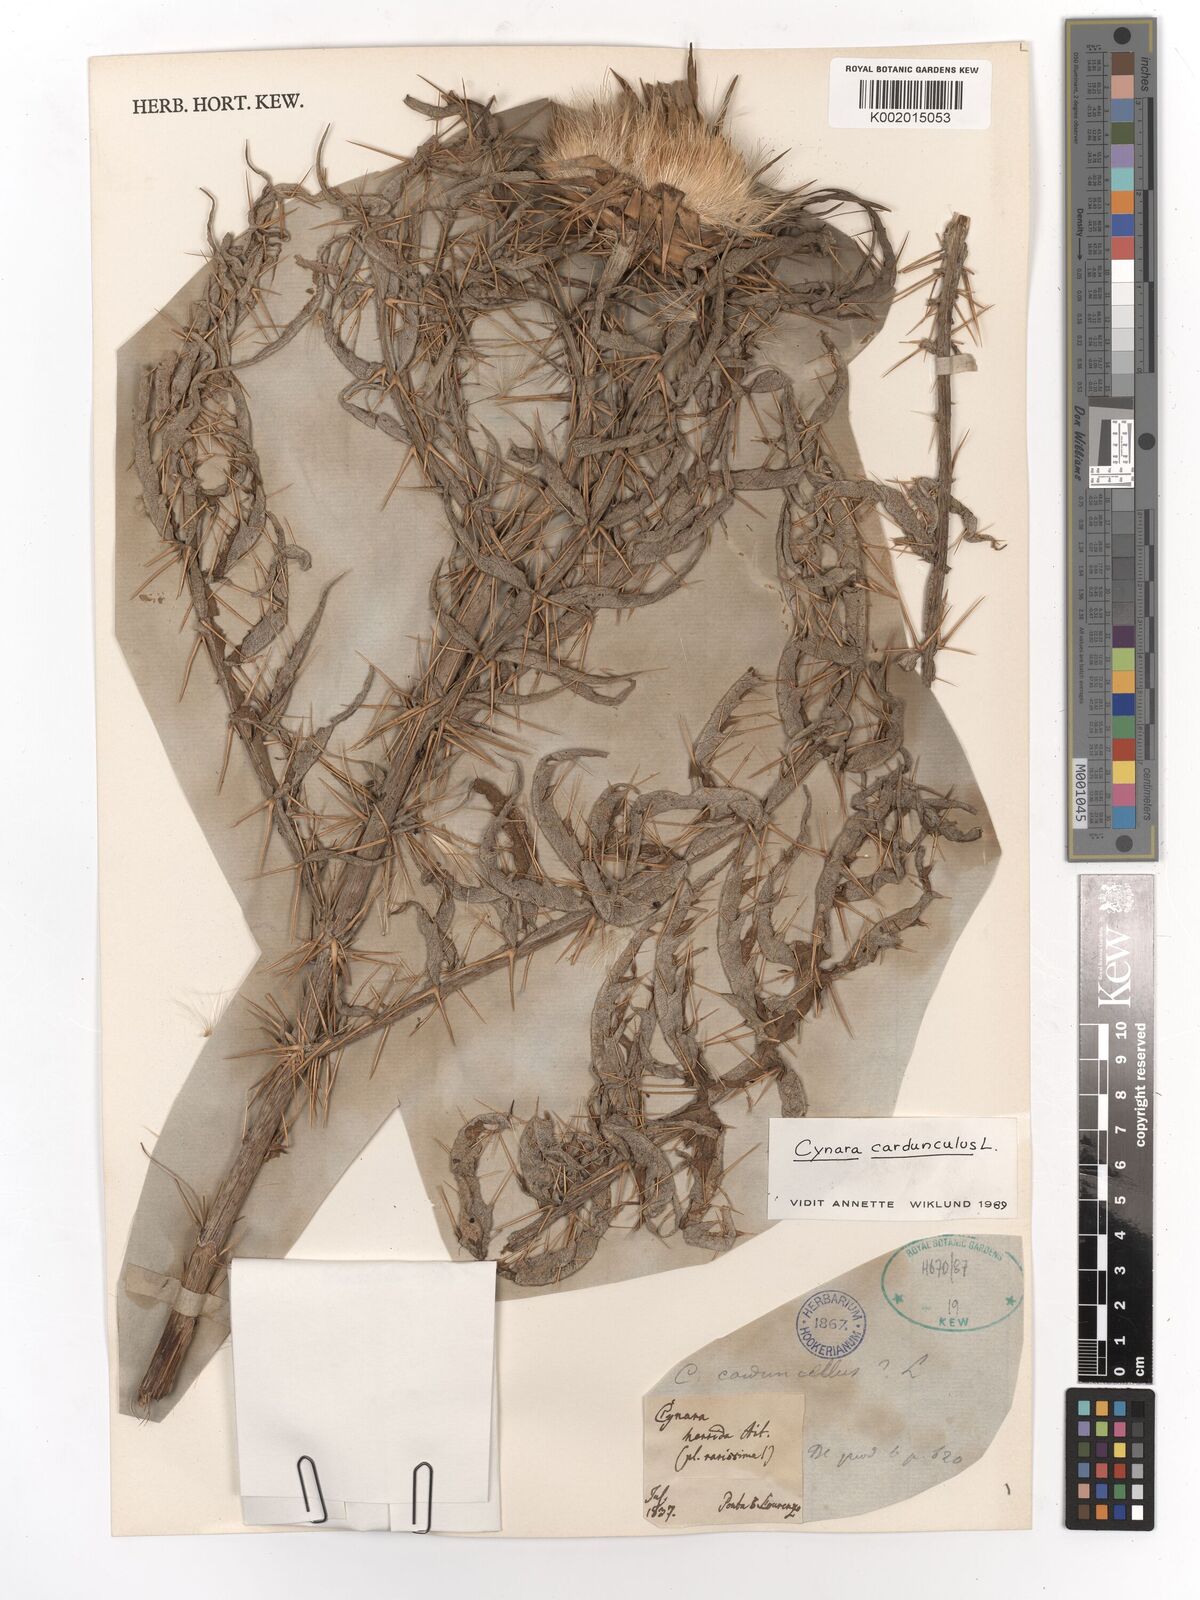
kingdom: Plantae
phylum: Tracheophyta
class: Magnoliopsida
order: Asterales
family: Asteraceae
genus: Cynara
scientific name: Cynara cardunculus
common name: Globe artichoke
